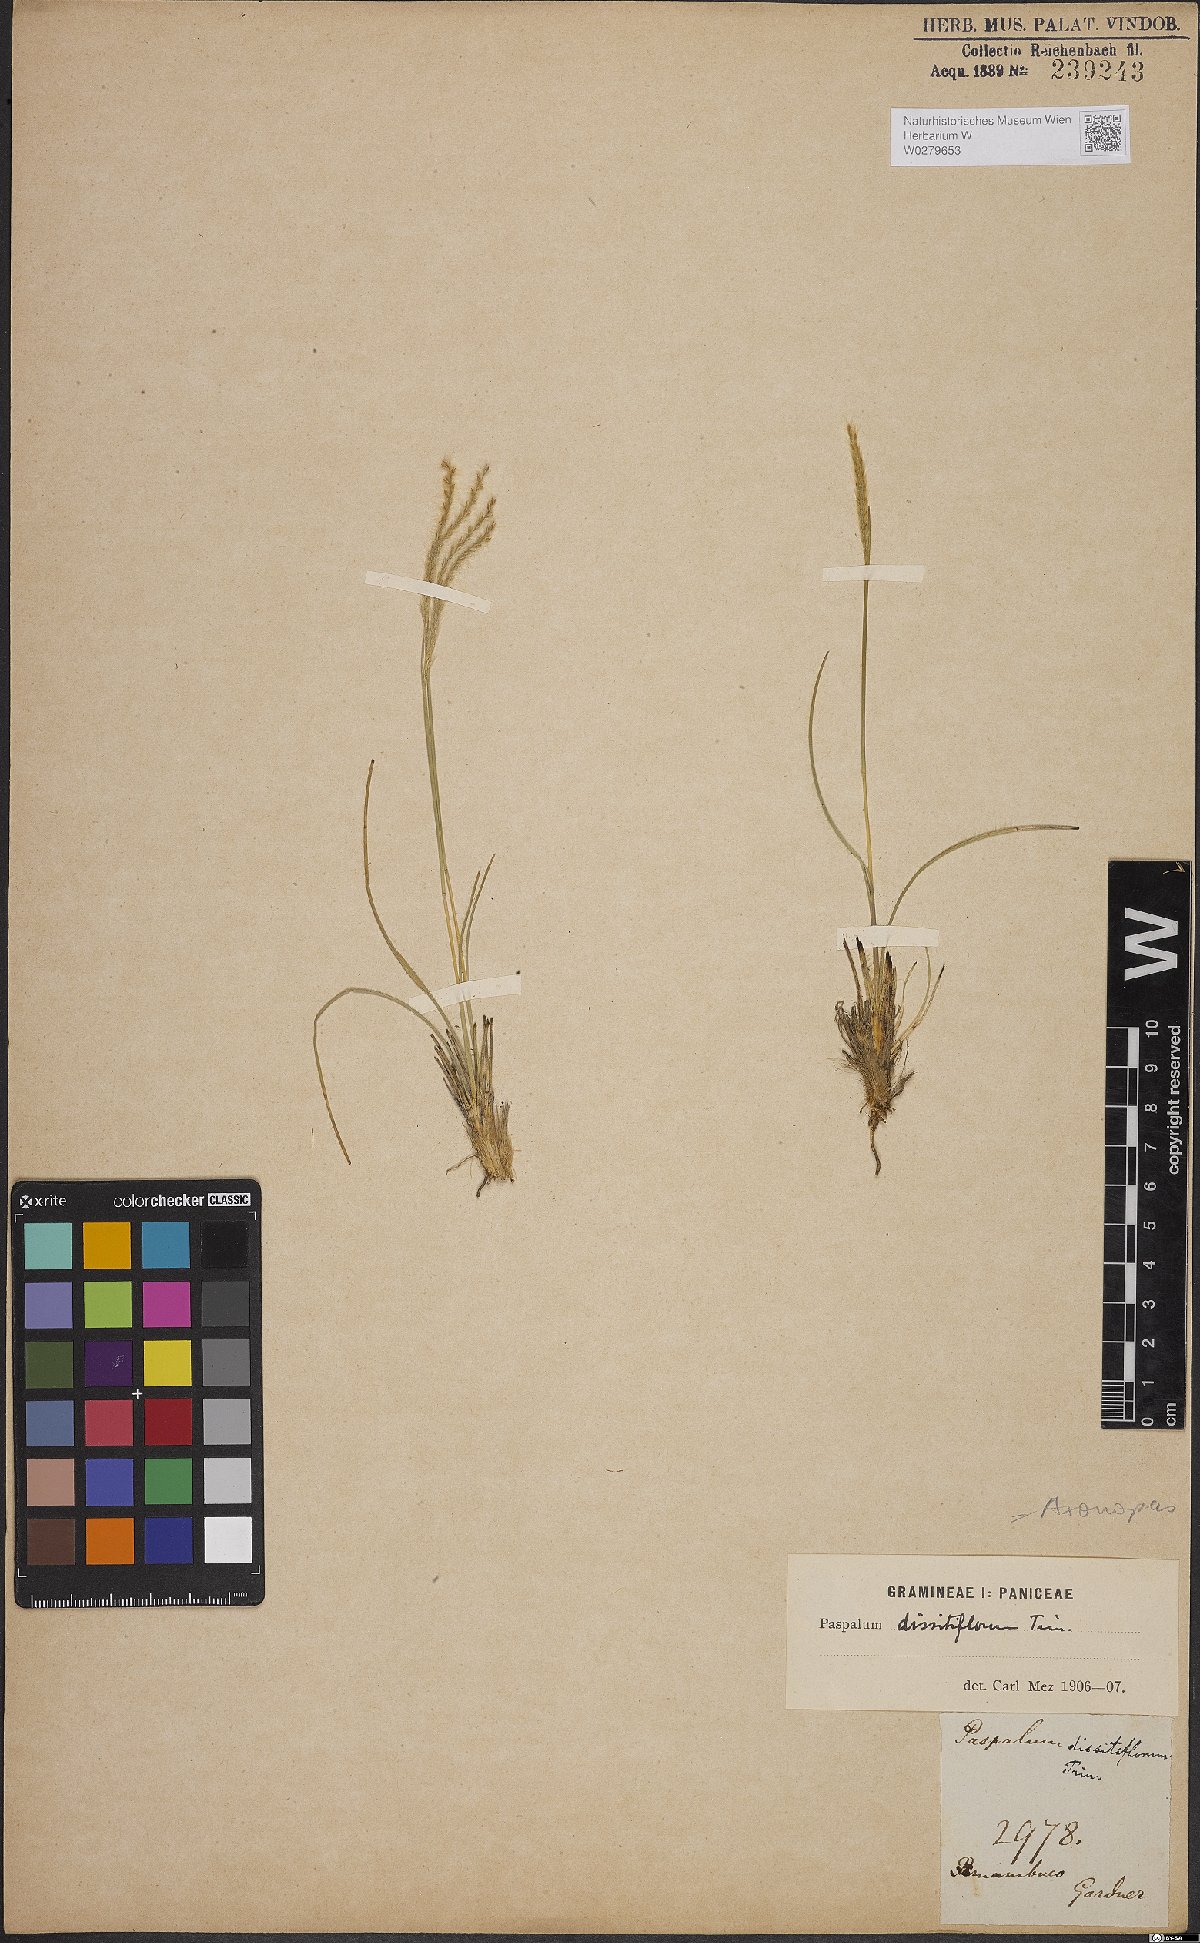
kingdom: Plantae
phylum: Tracheophyta
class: Liliopsida
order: Poales
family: Poaceae
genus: Axonopus
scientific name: Axonopus brasiliensis
